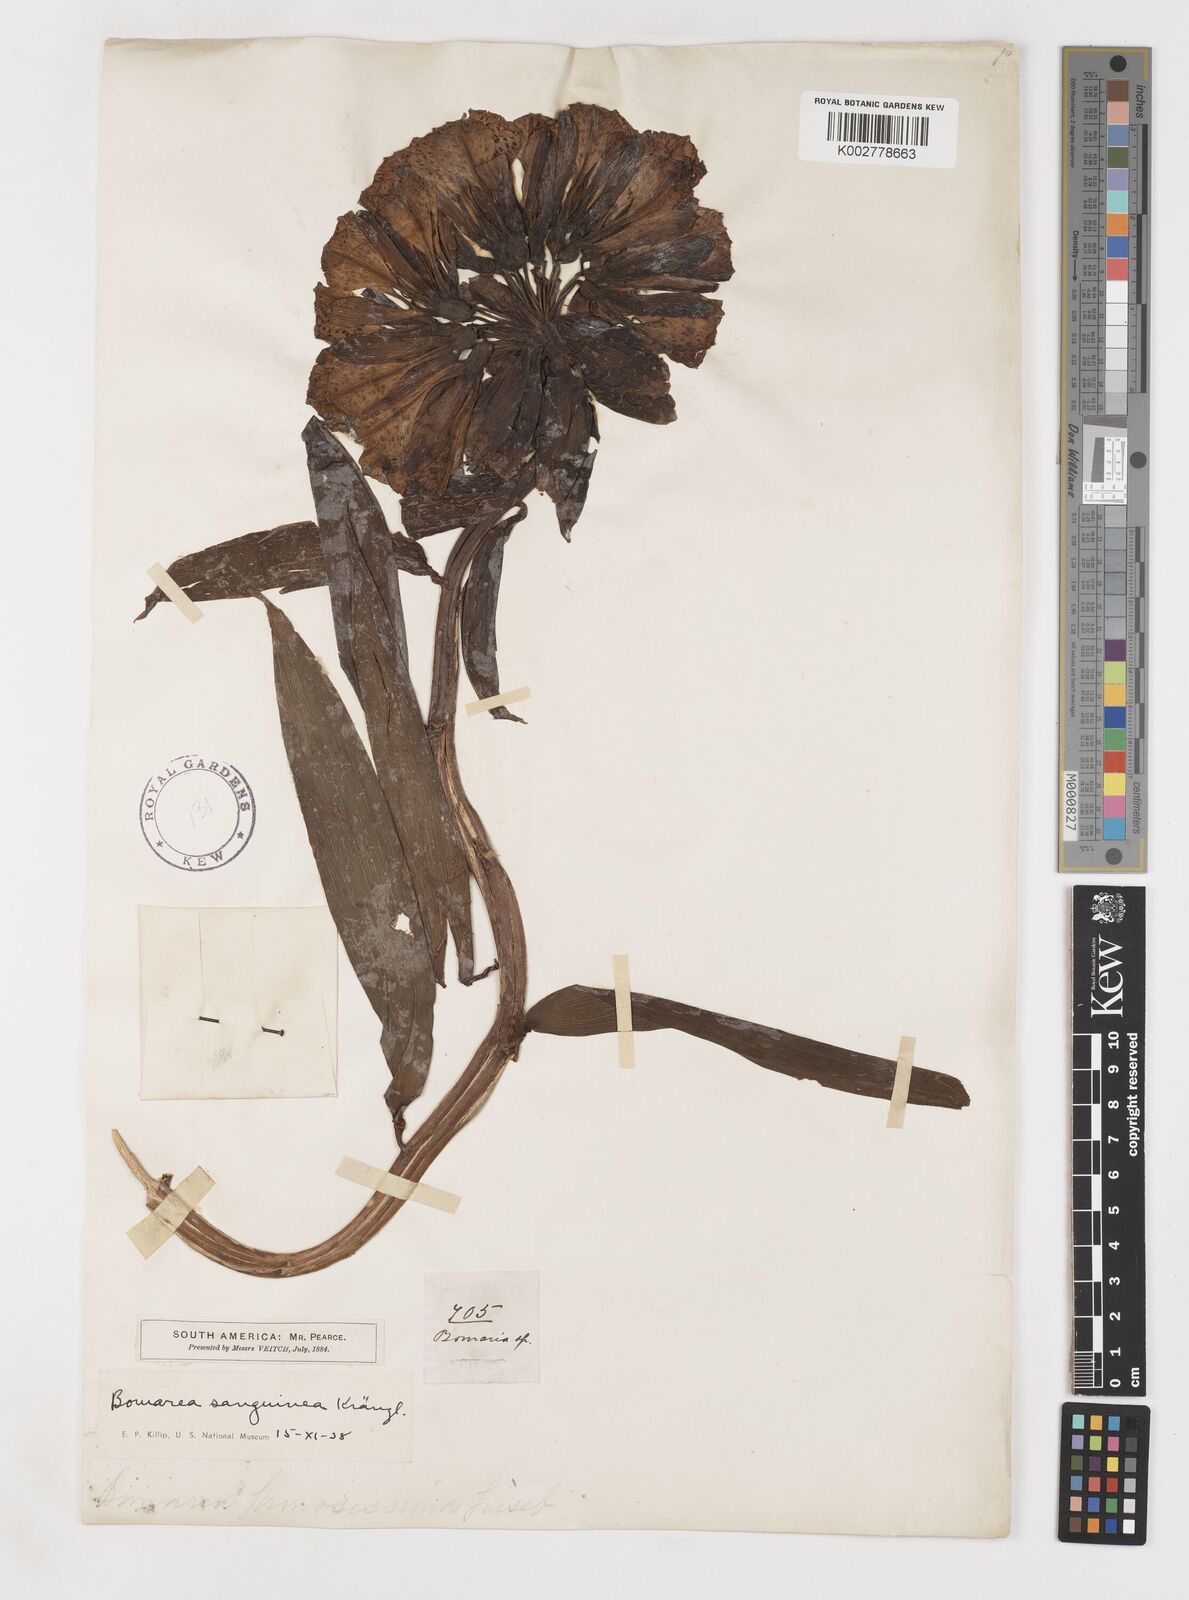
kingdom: Plantae
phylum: Tracheophyta
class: Liliopsida
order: Liliales
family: Alstroemeriaceae
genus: Bomarea
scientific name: Bomarea formosissima
